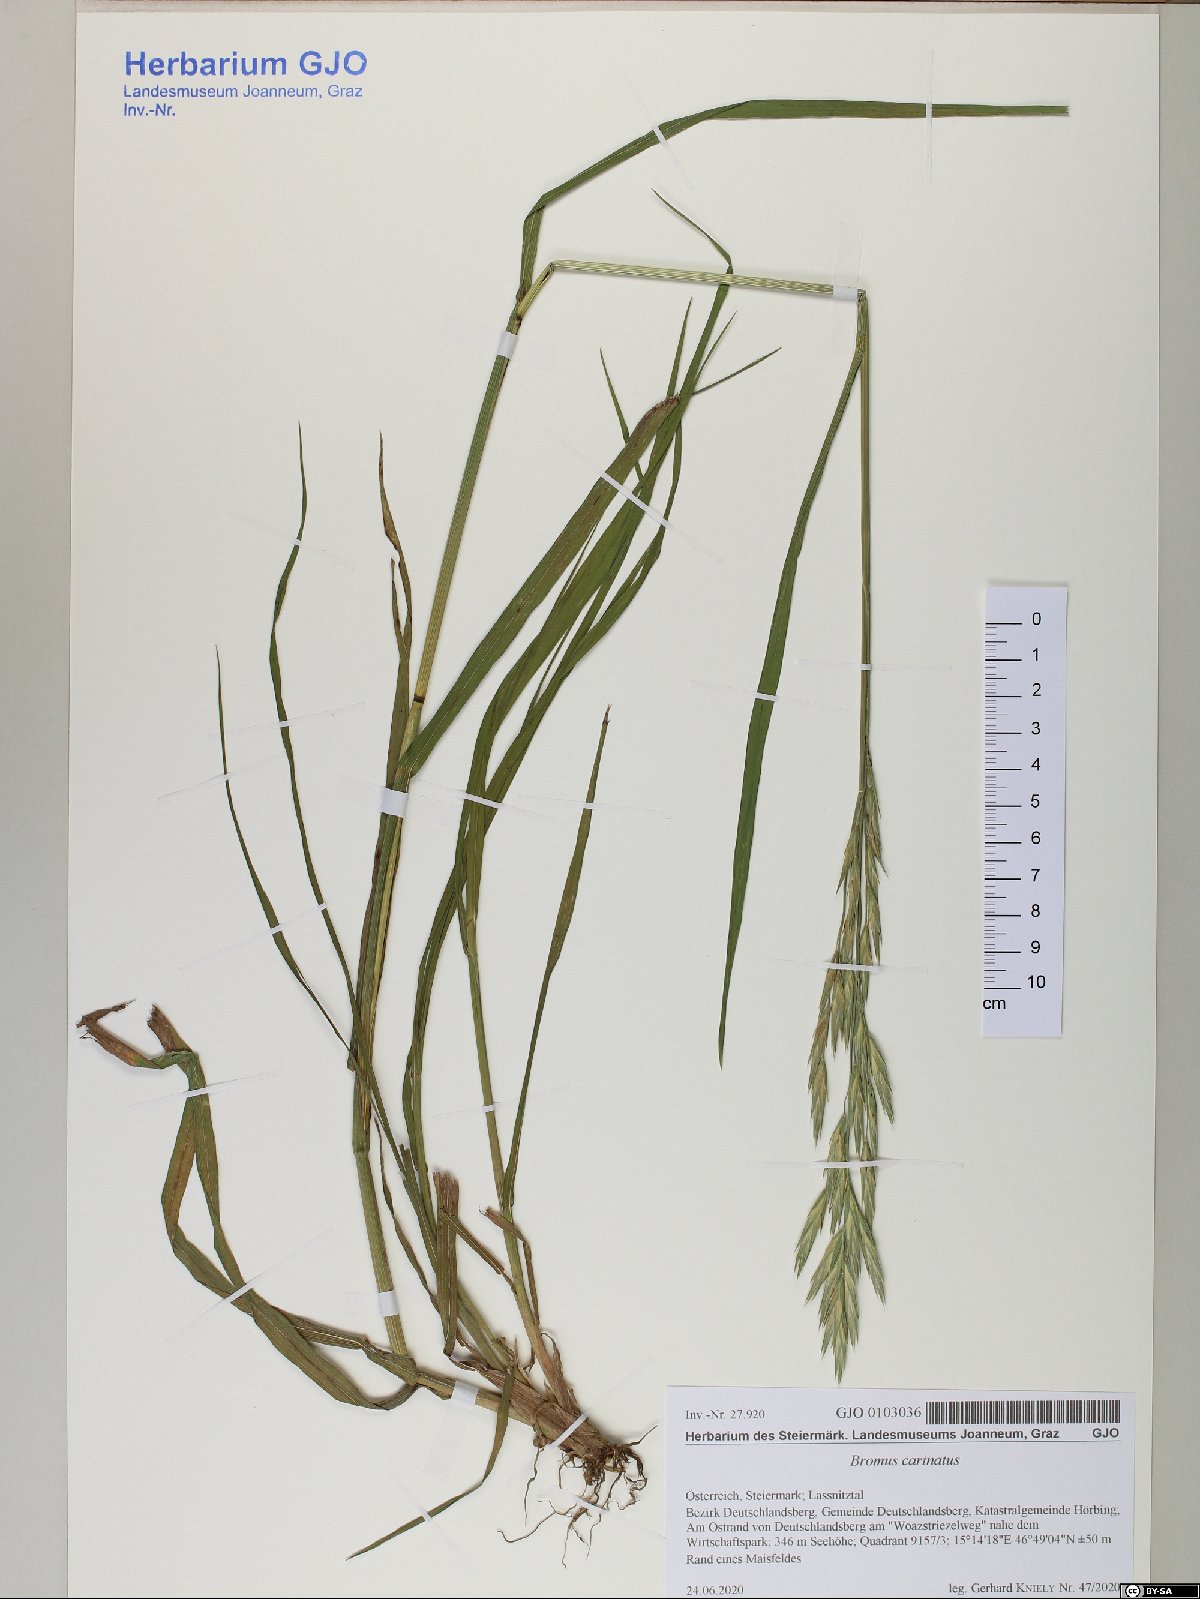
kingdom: Plantae
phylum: Tracheophyta
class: Liliopsida
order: Poales
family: Poaceae
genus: Bromus
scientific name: Bromus carinatus
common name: Mountain brome
